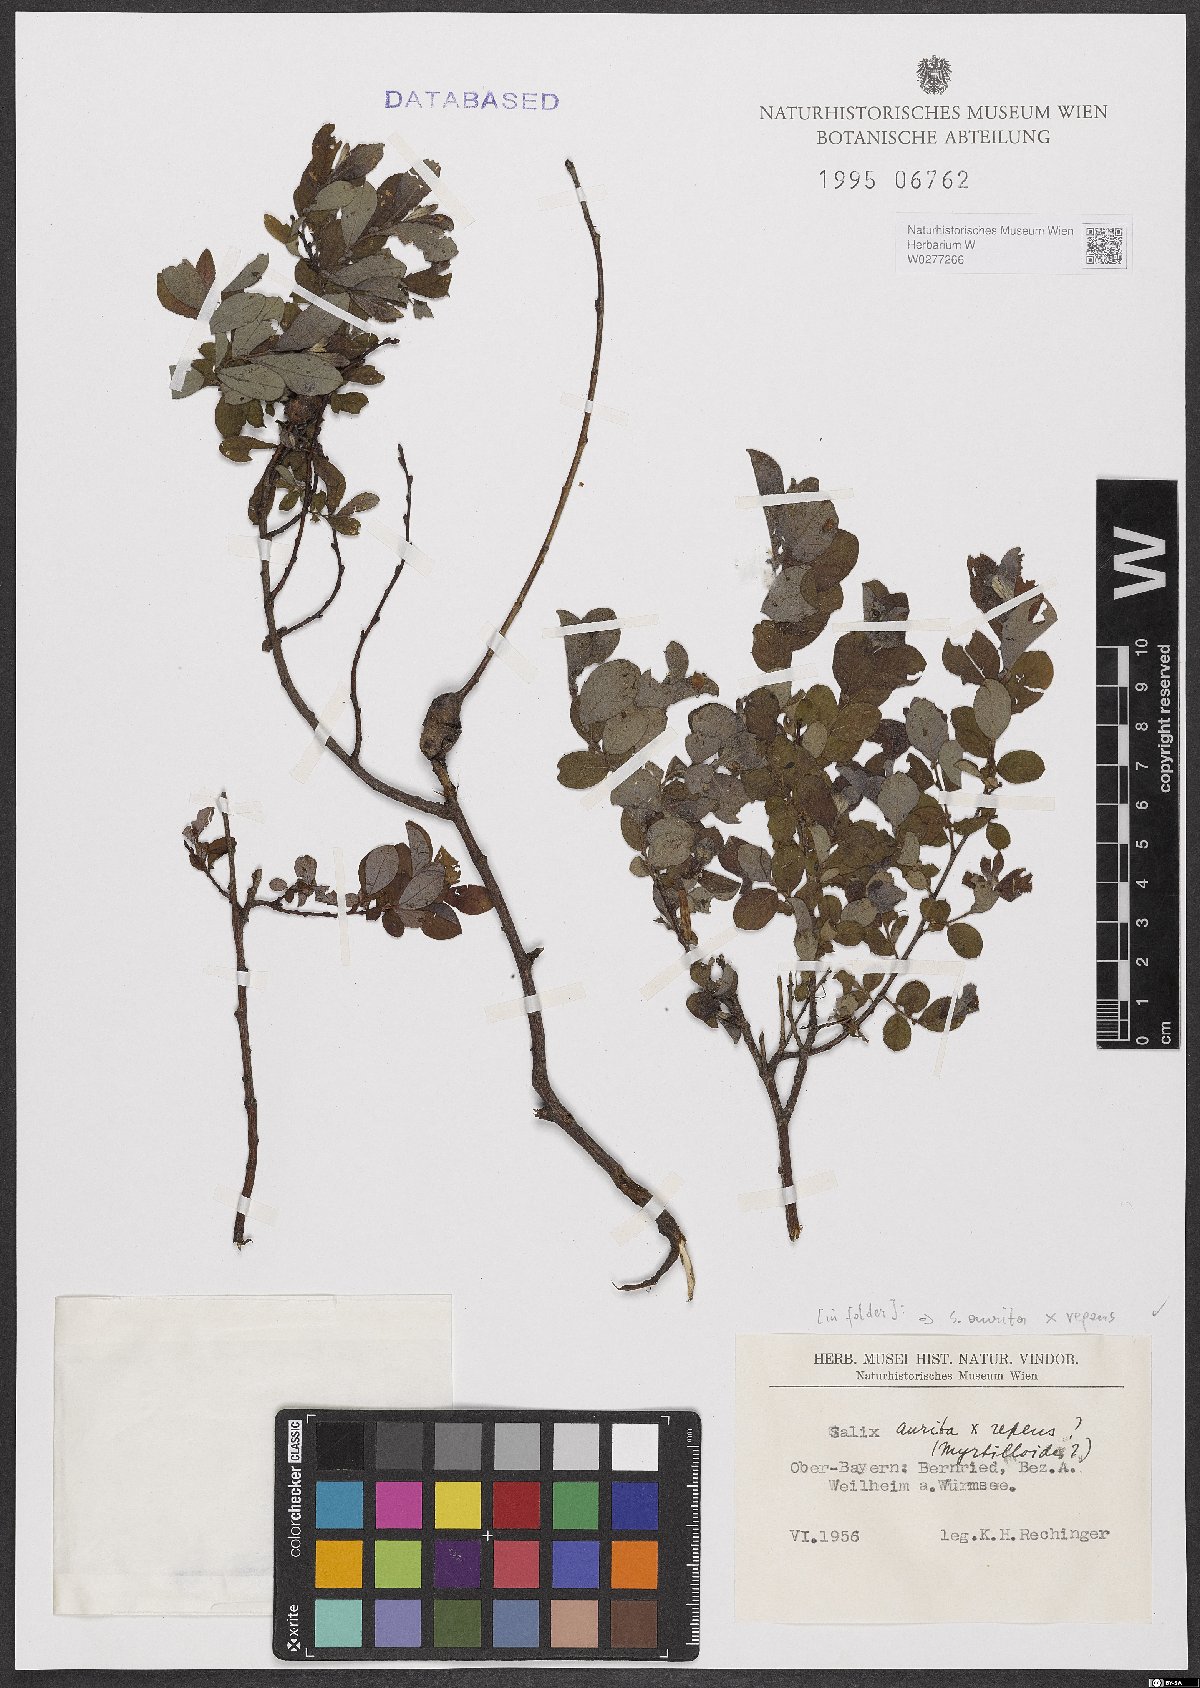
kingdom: Plantae
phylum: Tracheophyta
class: Magnoliopsida
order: Malpighiales
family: Salicaceae
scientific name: Salicaceae
